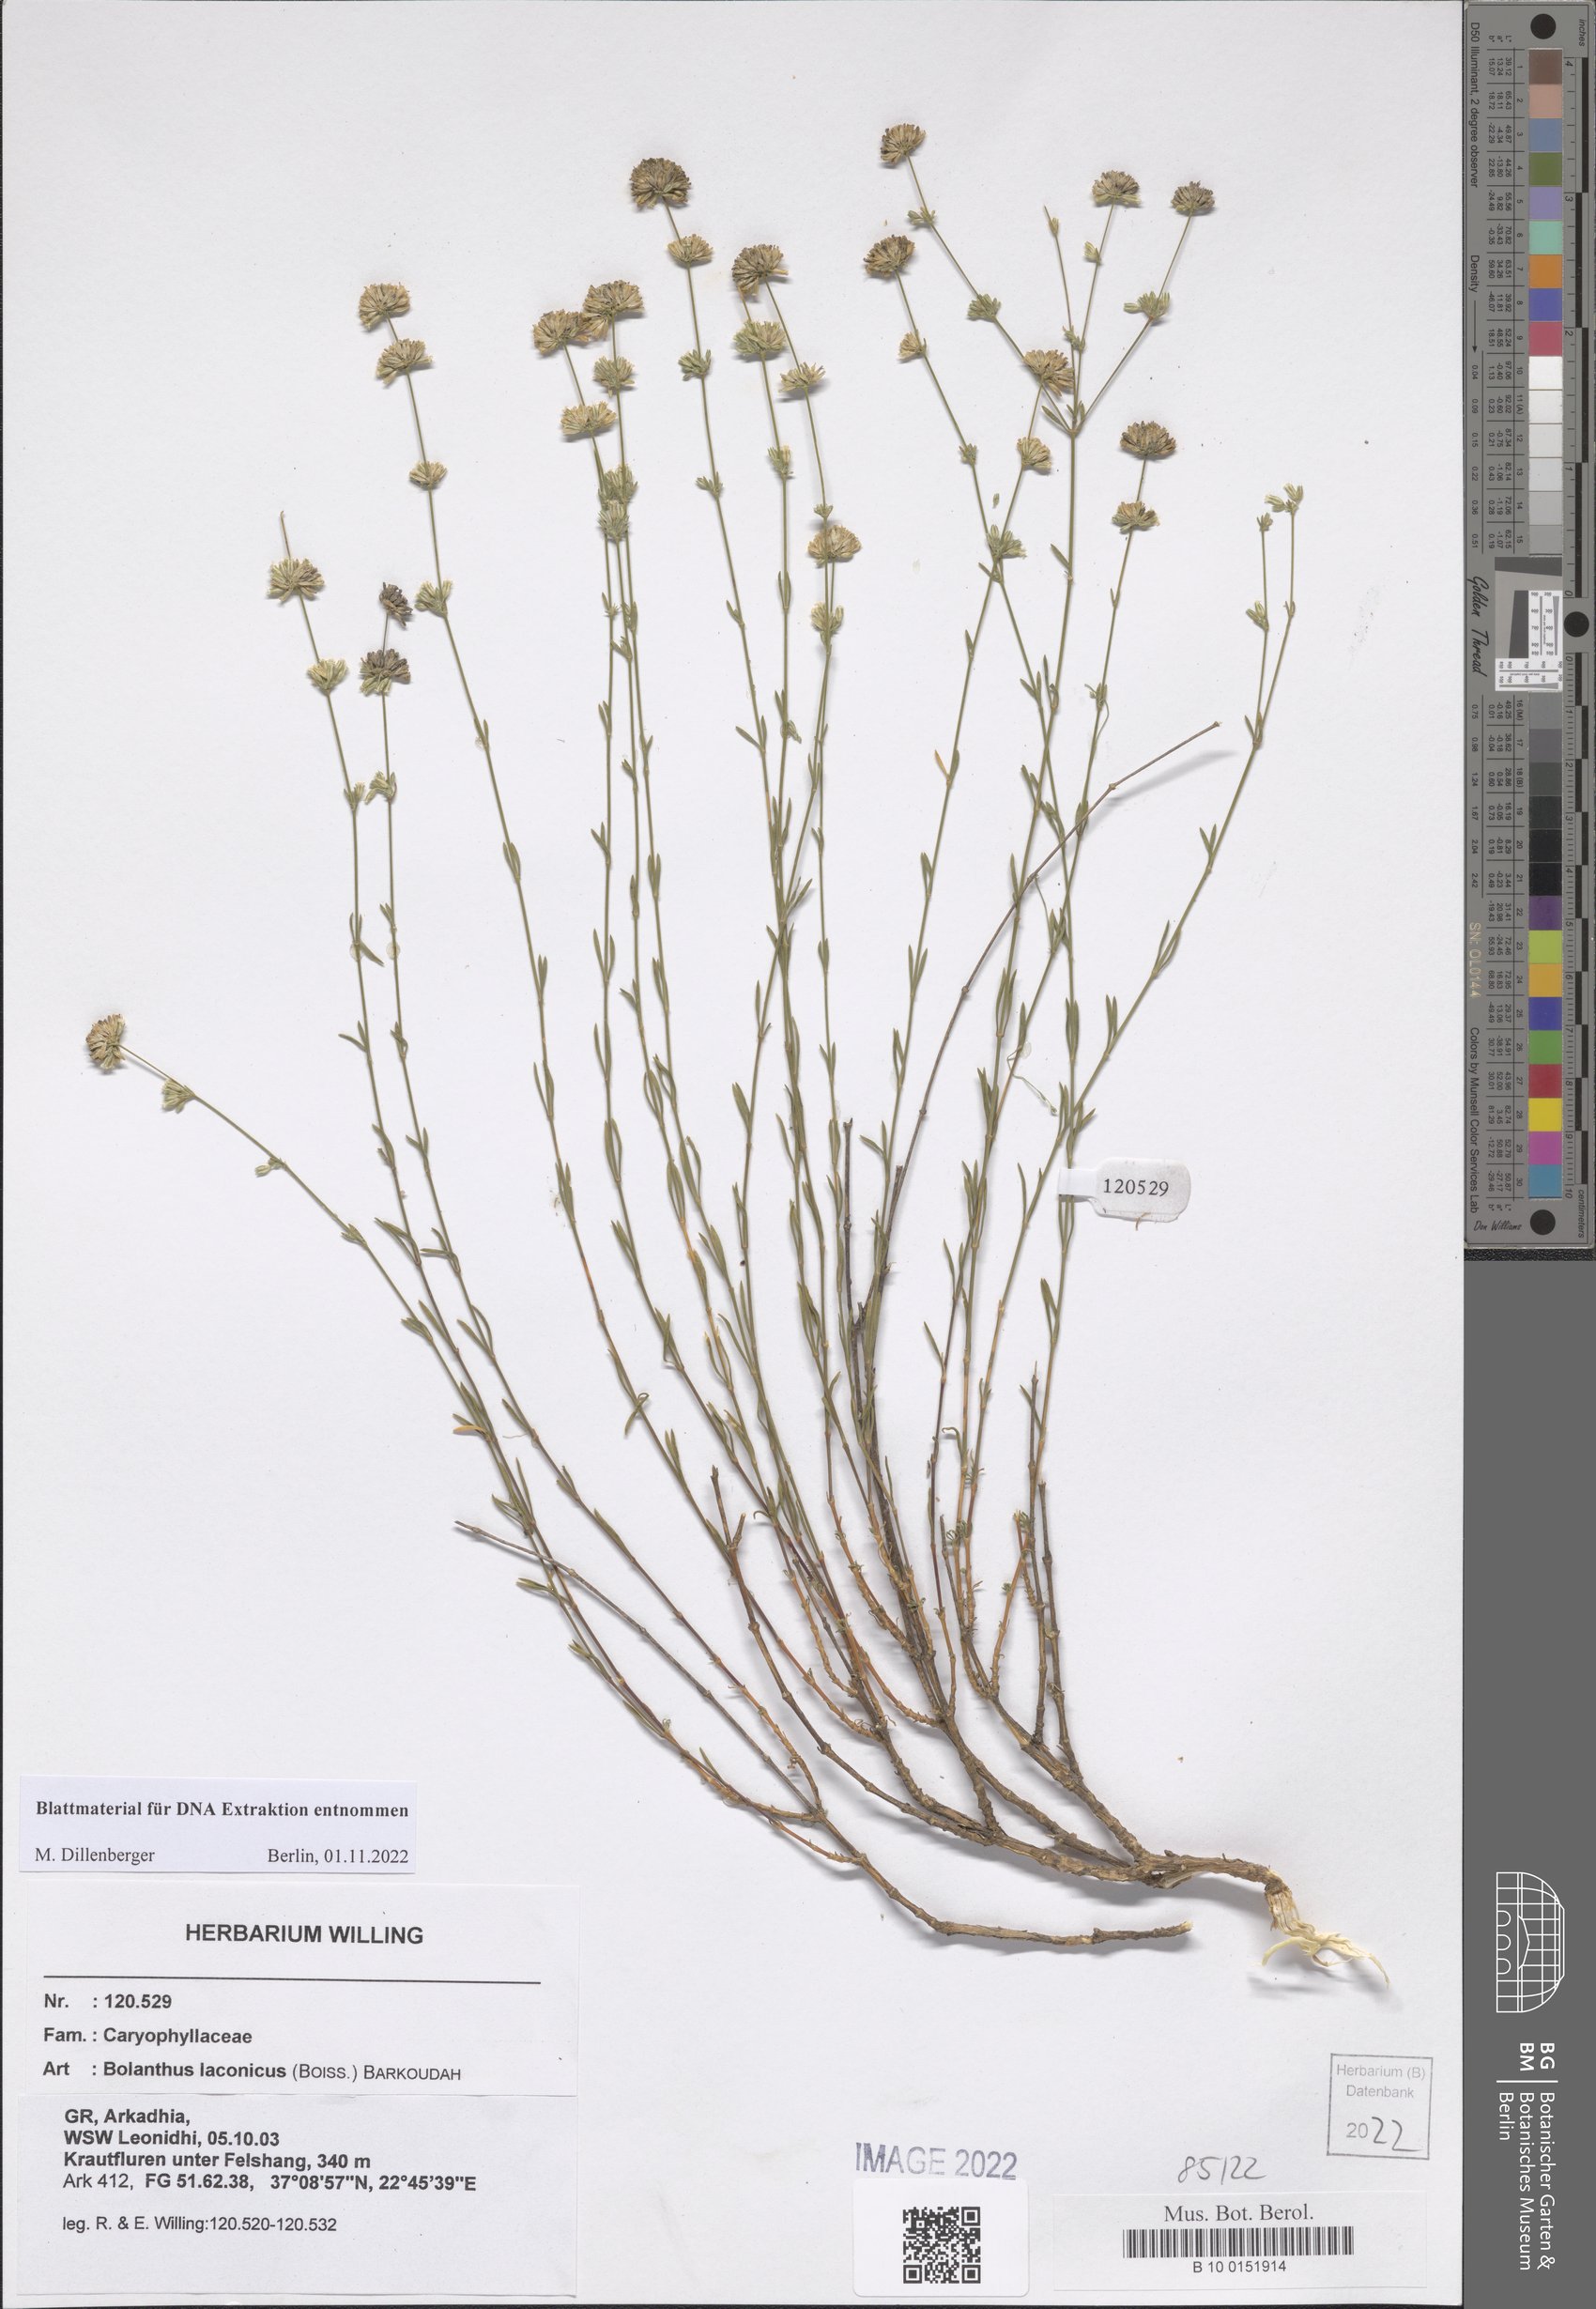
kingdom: Plantae
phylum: Tracheophyta
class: Magnoliopsida
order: Caryophyllales
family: Caryophyllaceae
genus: Graecobolanthus
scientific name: Graecobolanthus laconicus
